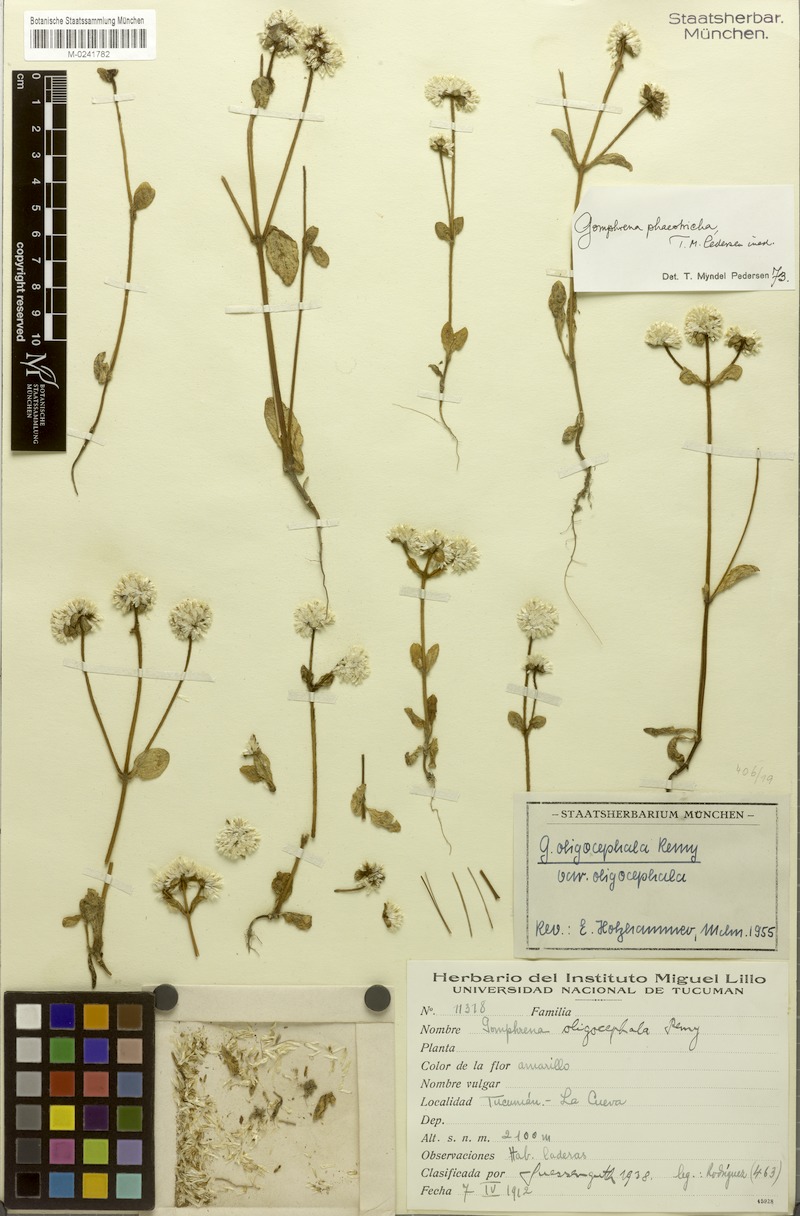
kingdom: Plantae
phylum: Tracheophyta
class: Magnoliopsida
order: Caryophyllales
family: Amaranthaceae
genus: Gomphrena
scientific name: Gomphrena phaeotricha
